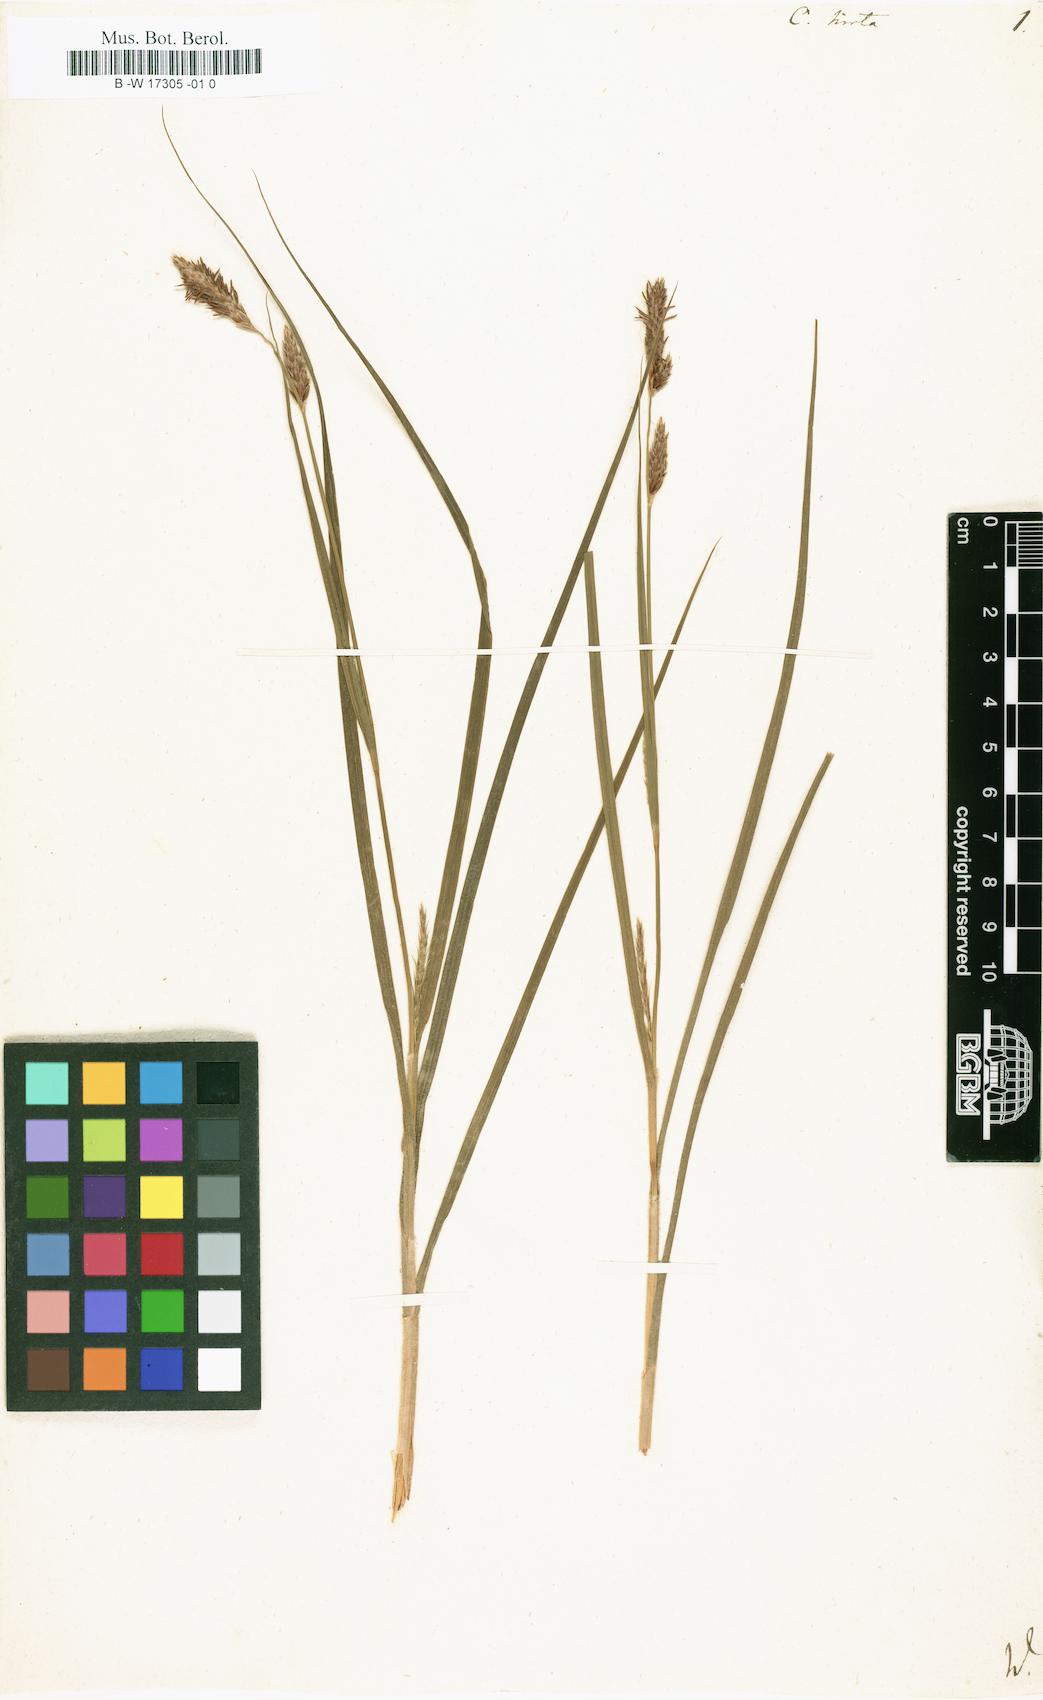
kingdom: Plantae
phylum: Tracheophyta
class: Liliopsida
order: Poales
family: Cyperaceae
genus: Carex
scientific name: Carex hirta
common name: Hairy sedge
